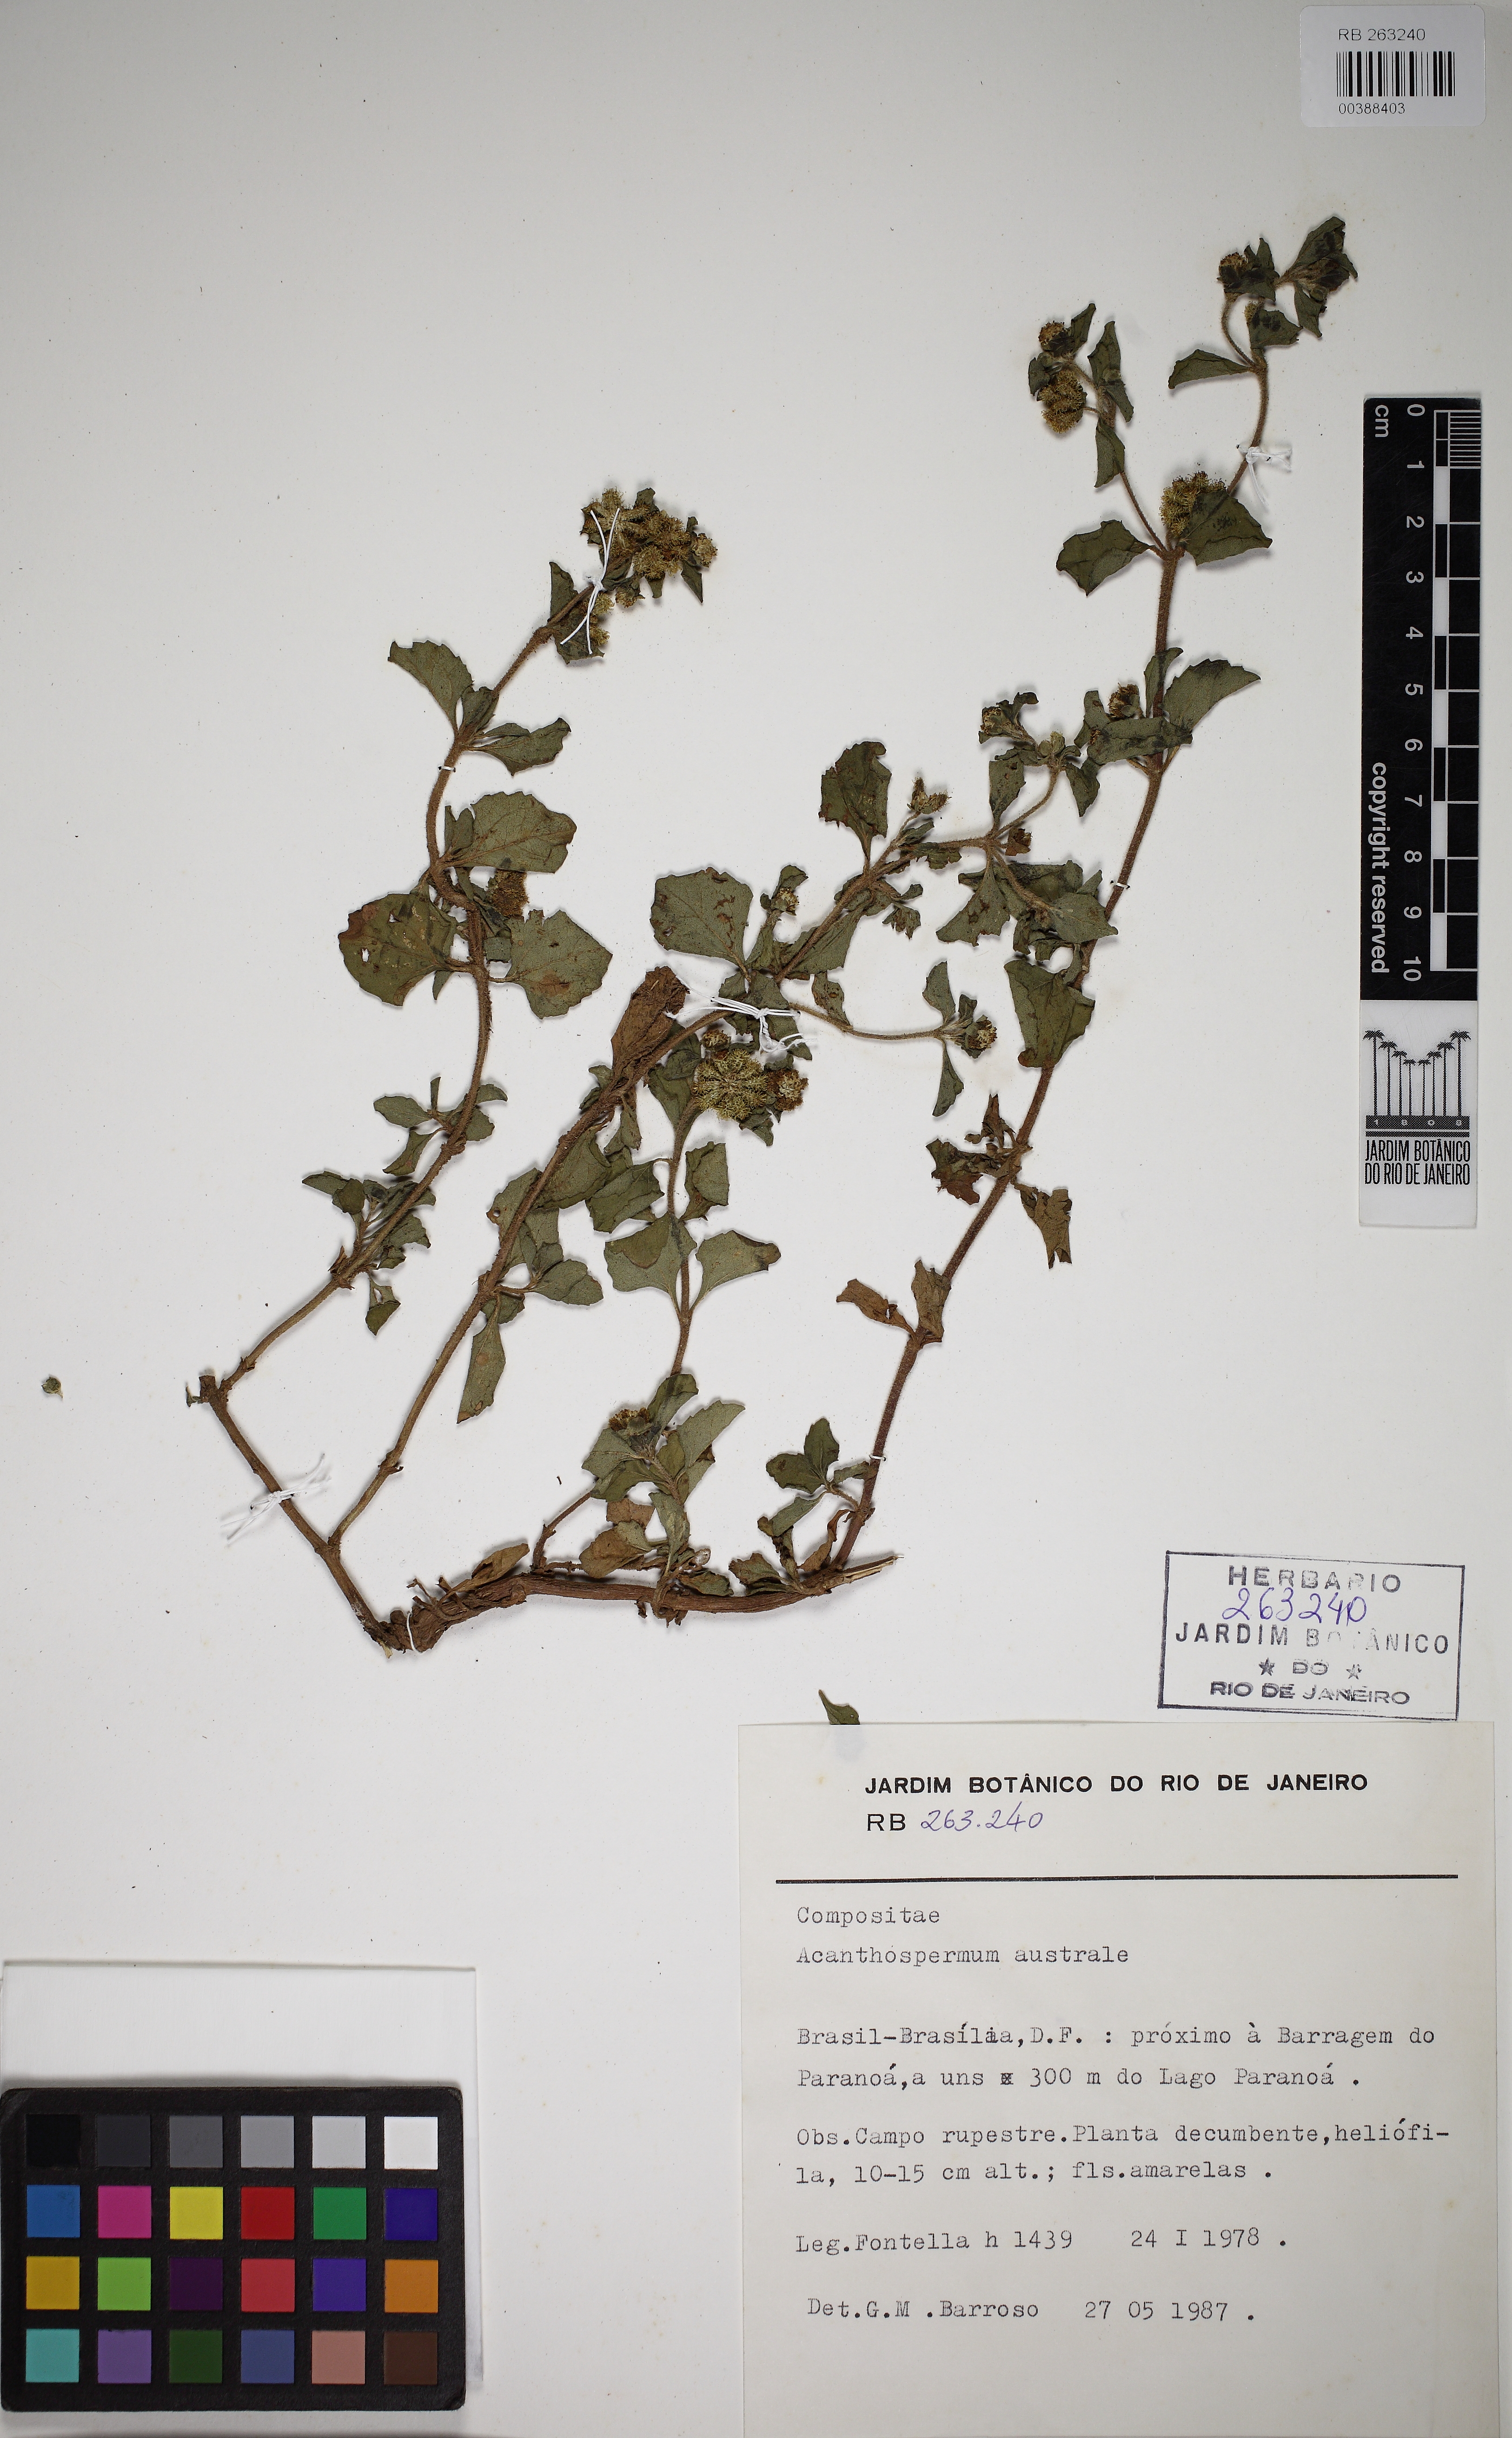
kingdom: Plantae
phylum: Tracheophyta
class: Magnoliopsida
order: Asterales
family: Asteraceae
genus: Acanthospermum
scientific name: Acanthospermum australe
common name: Paraguayan starbur
